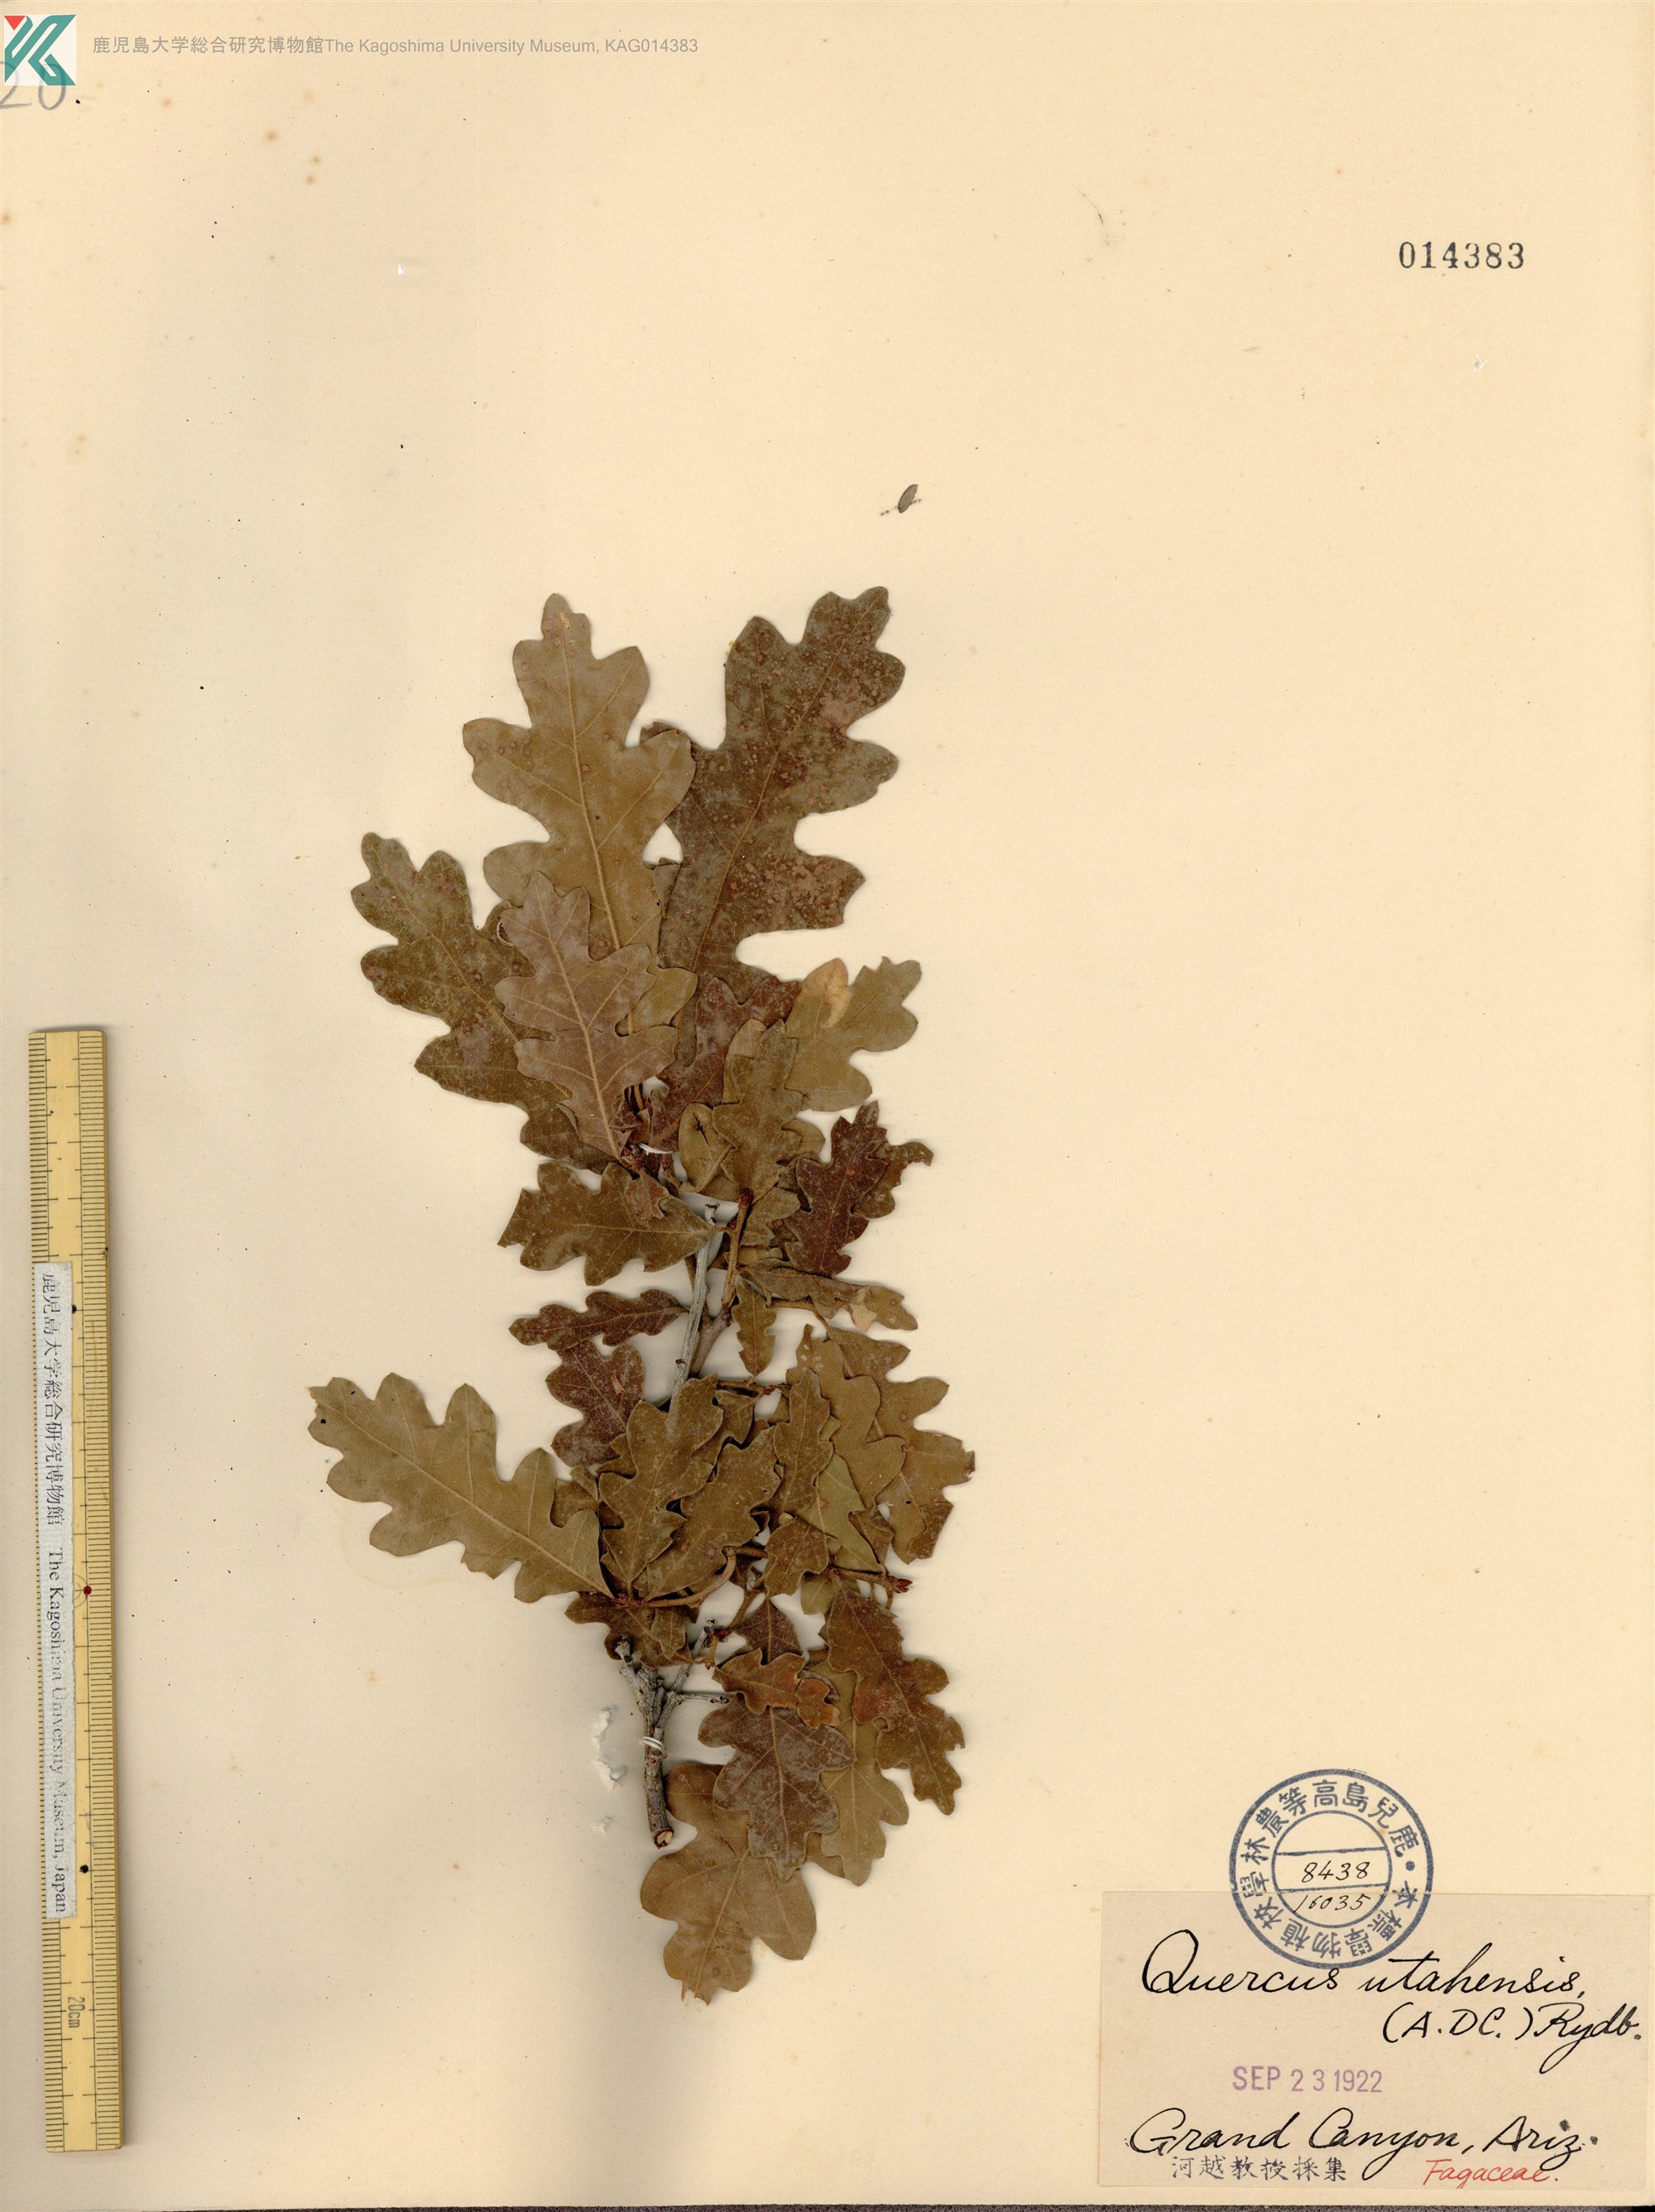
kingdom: Plantae
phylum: Tracheophyta
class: Magnoliopsida
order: Fagales
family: Fagaceae
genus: Quercus
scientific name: Quercus gambelii
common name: Gambel oak
